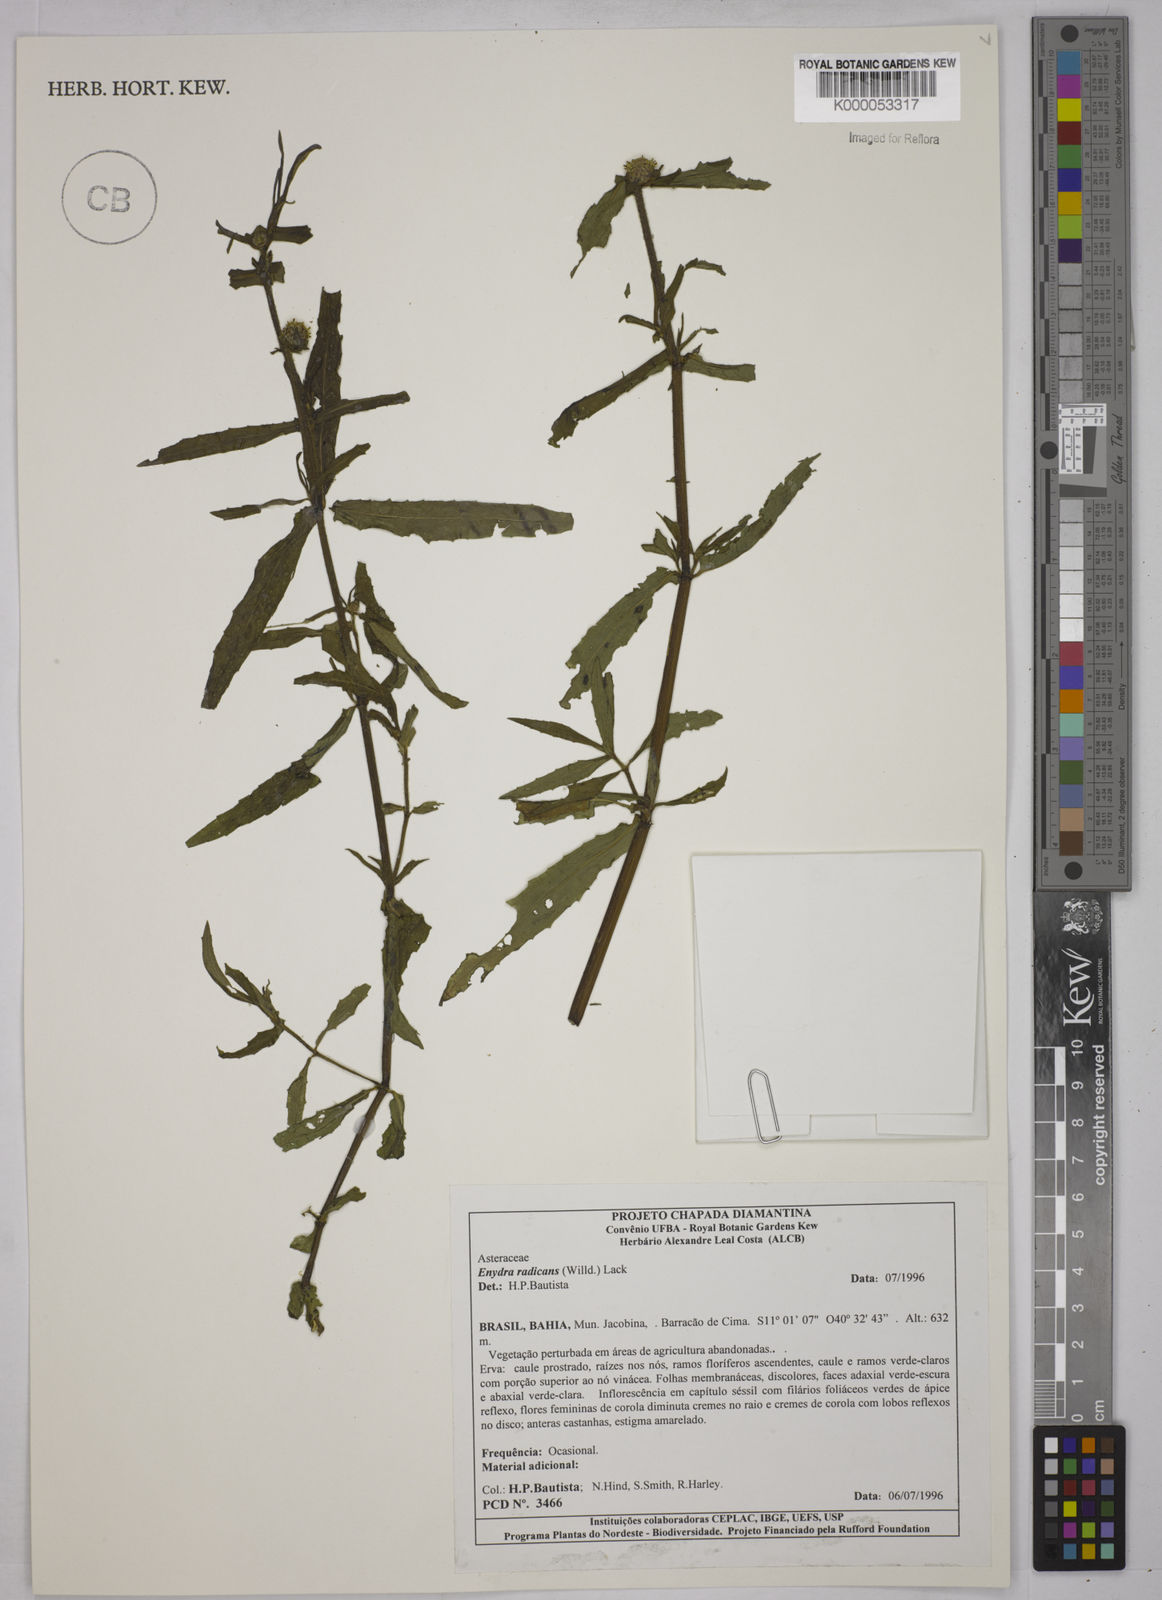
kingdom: Plantae
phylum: Tracheophyta
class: Magnoliopsida
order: Asterales
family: Asteraceae
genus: Enydra
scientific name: Enydra radicans
